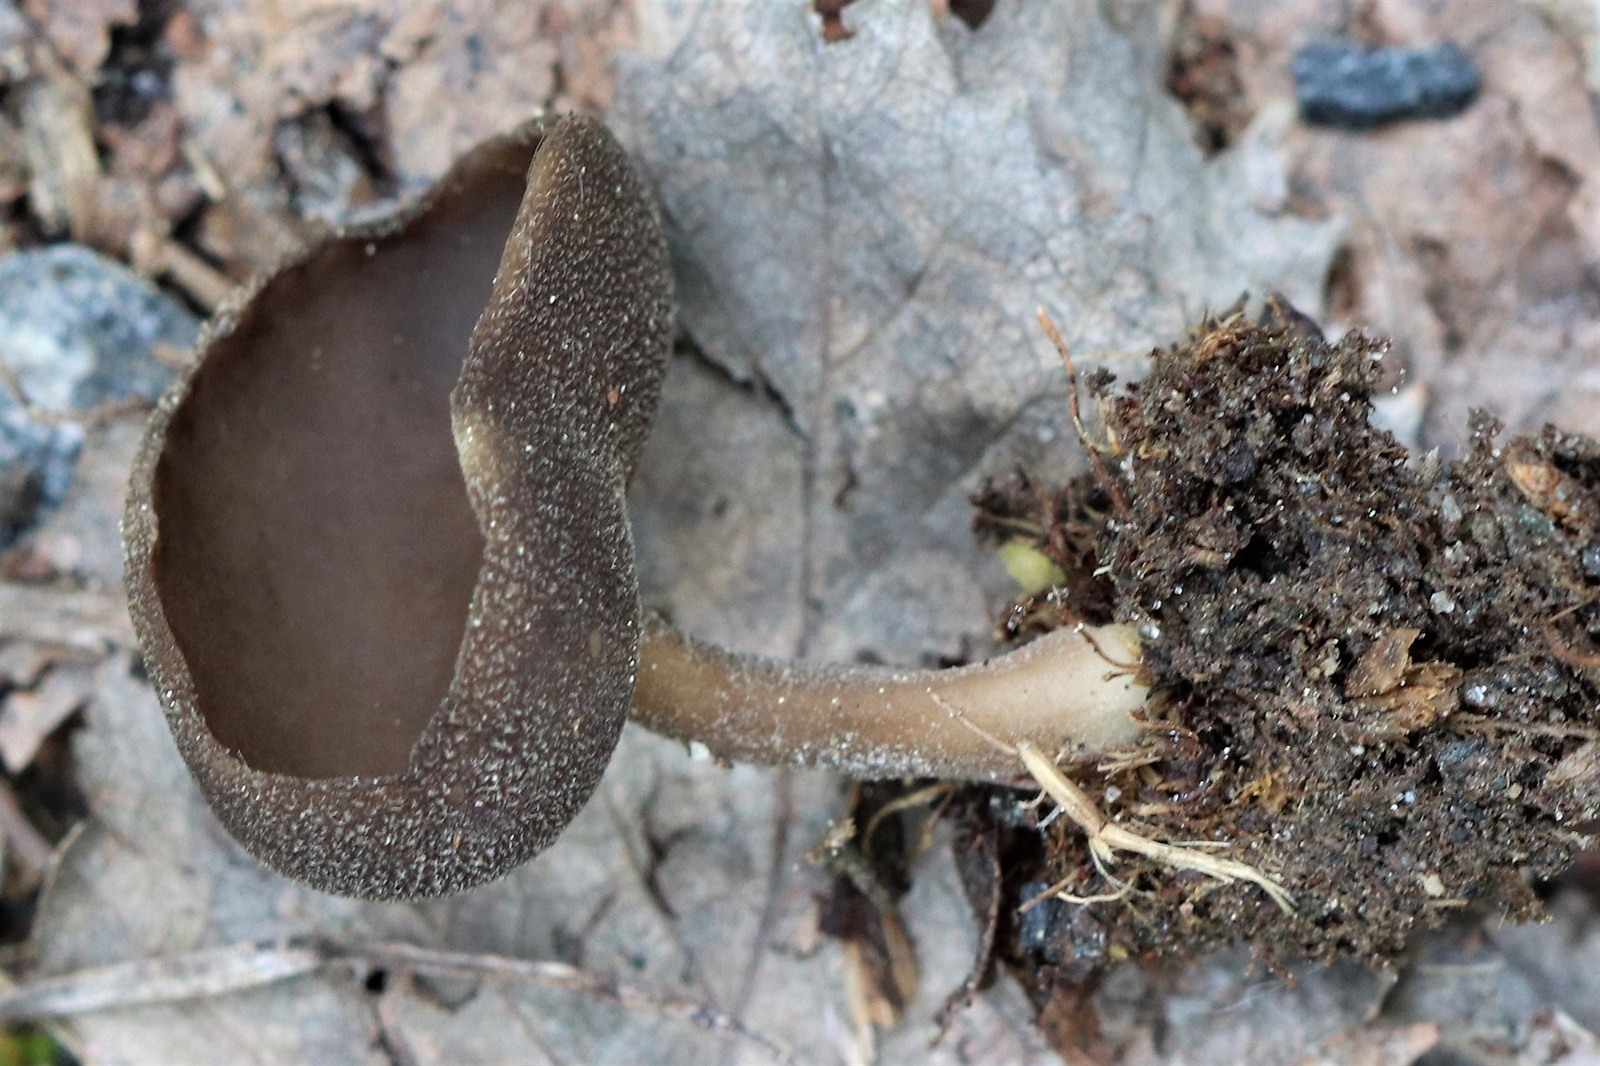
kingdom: Fungi
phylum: Ascomycota
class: Pezizomycetes
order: Pezizales
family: Helvellaceae
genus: Helvella
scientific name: Helvella fibrosa
